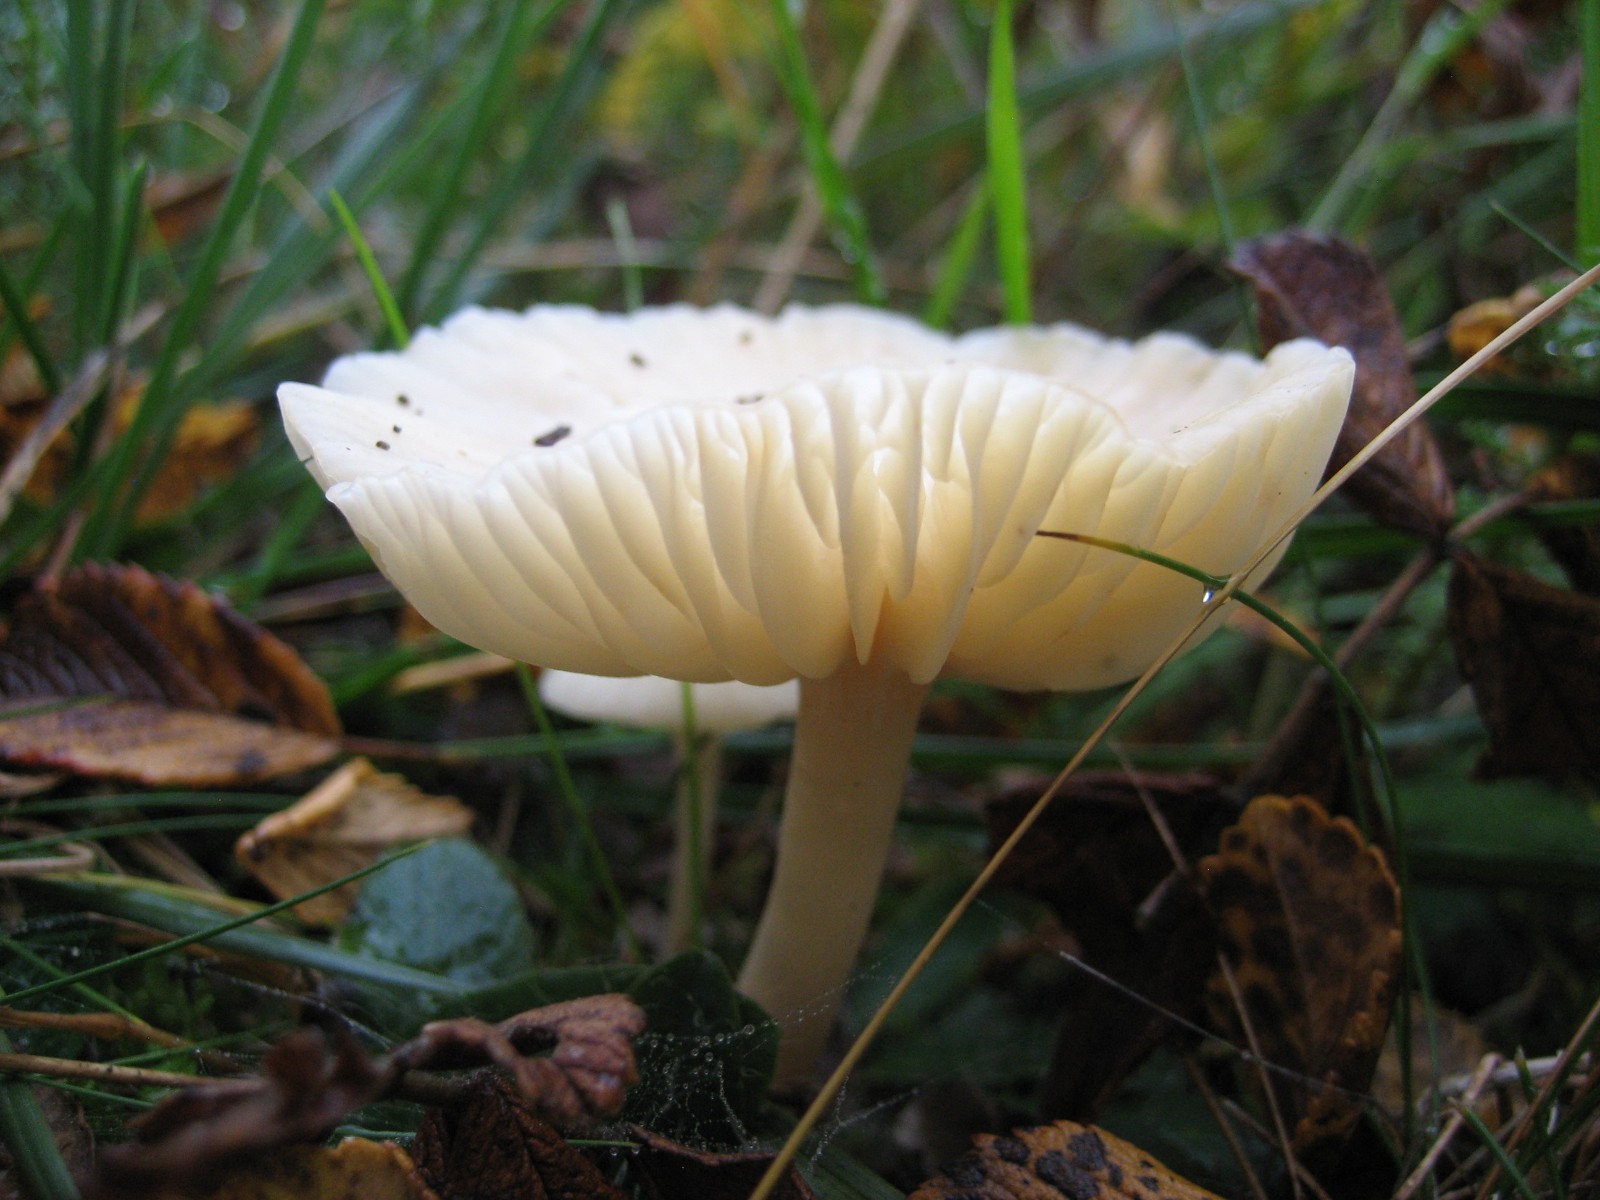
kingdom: Fungi
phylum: Basidiomycota
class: Agaricomycetes
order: Agaricales
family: Hygrophoraceae
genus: Cuphophyllus
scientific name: Cuphophyllus virgineus
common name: snehvid vokshat
